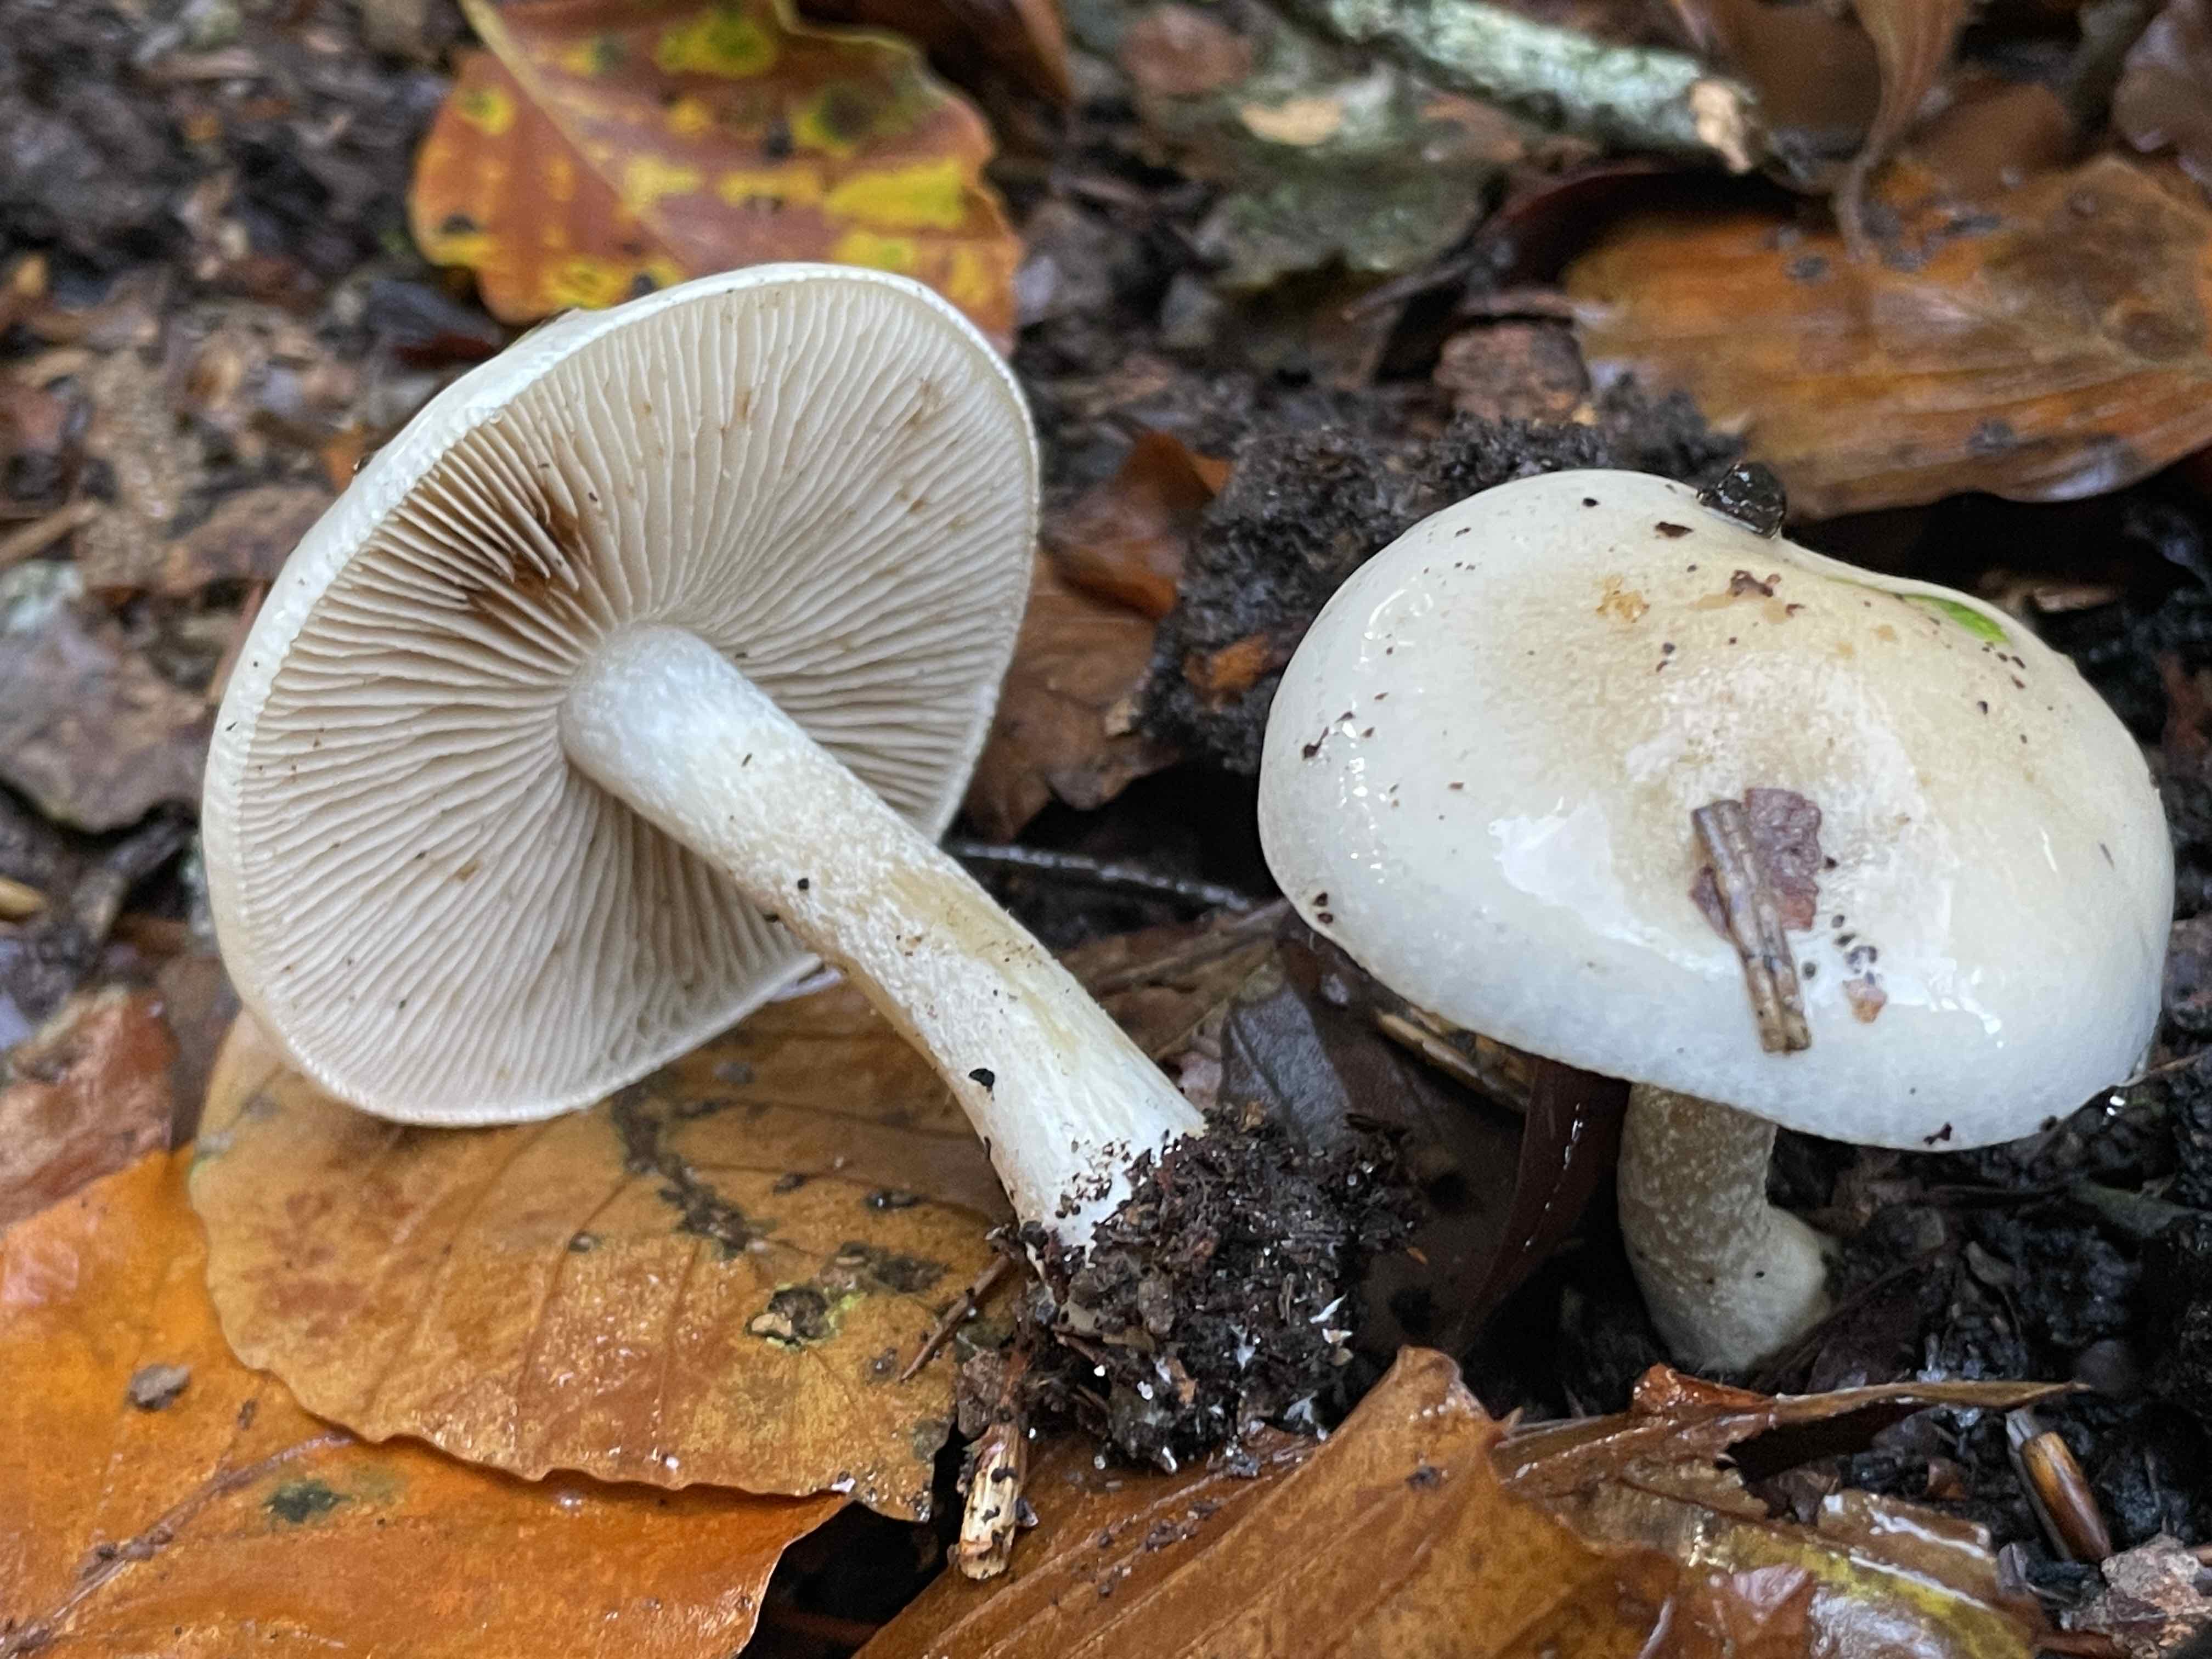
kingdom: Fungi
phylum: Basidiomycota
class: Agaricomycetes
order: Agaricales
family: Hymenogastraceae
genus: Hebeloma
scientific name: Hebeloma
